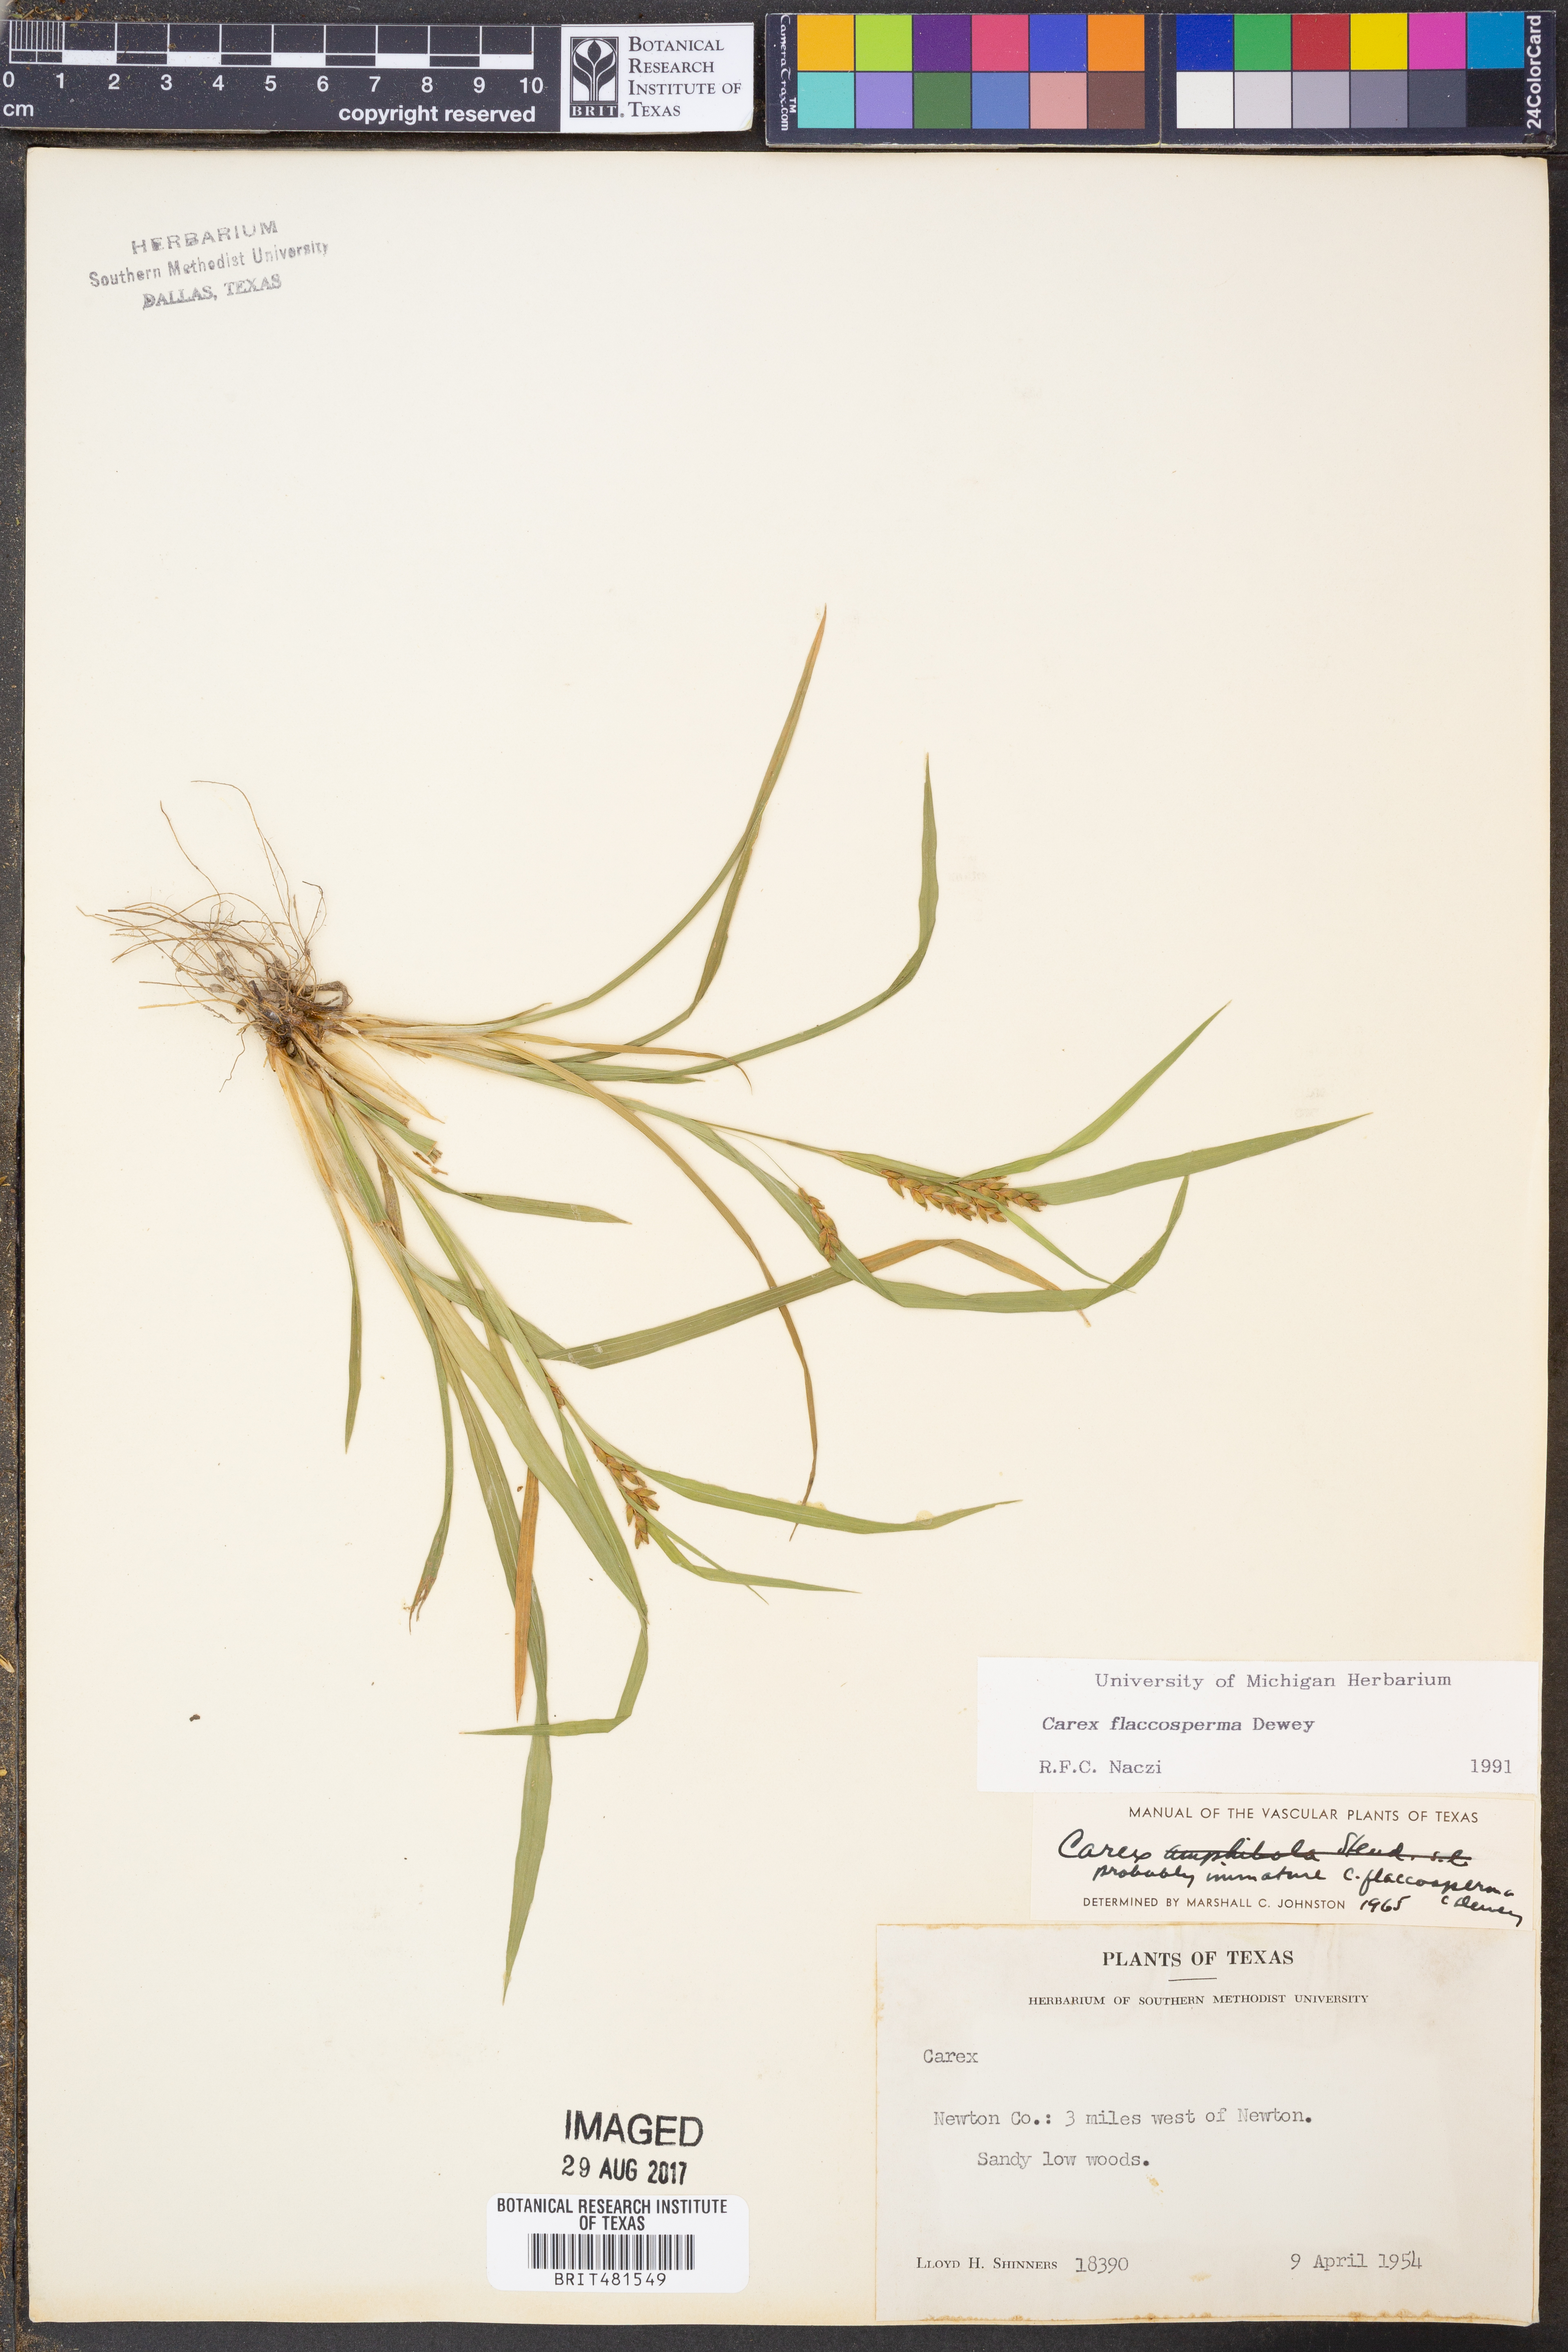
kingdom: Plantae
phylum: Tracheophyta
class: Liliopsida
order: Poales
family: Cyperaceae
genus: Carex
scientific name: Carex flaccosperma
